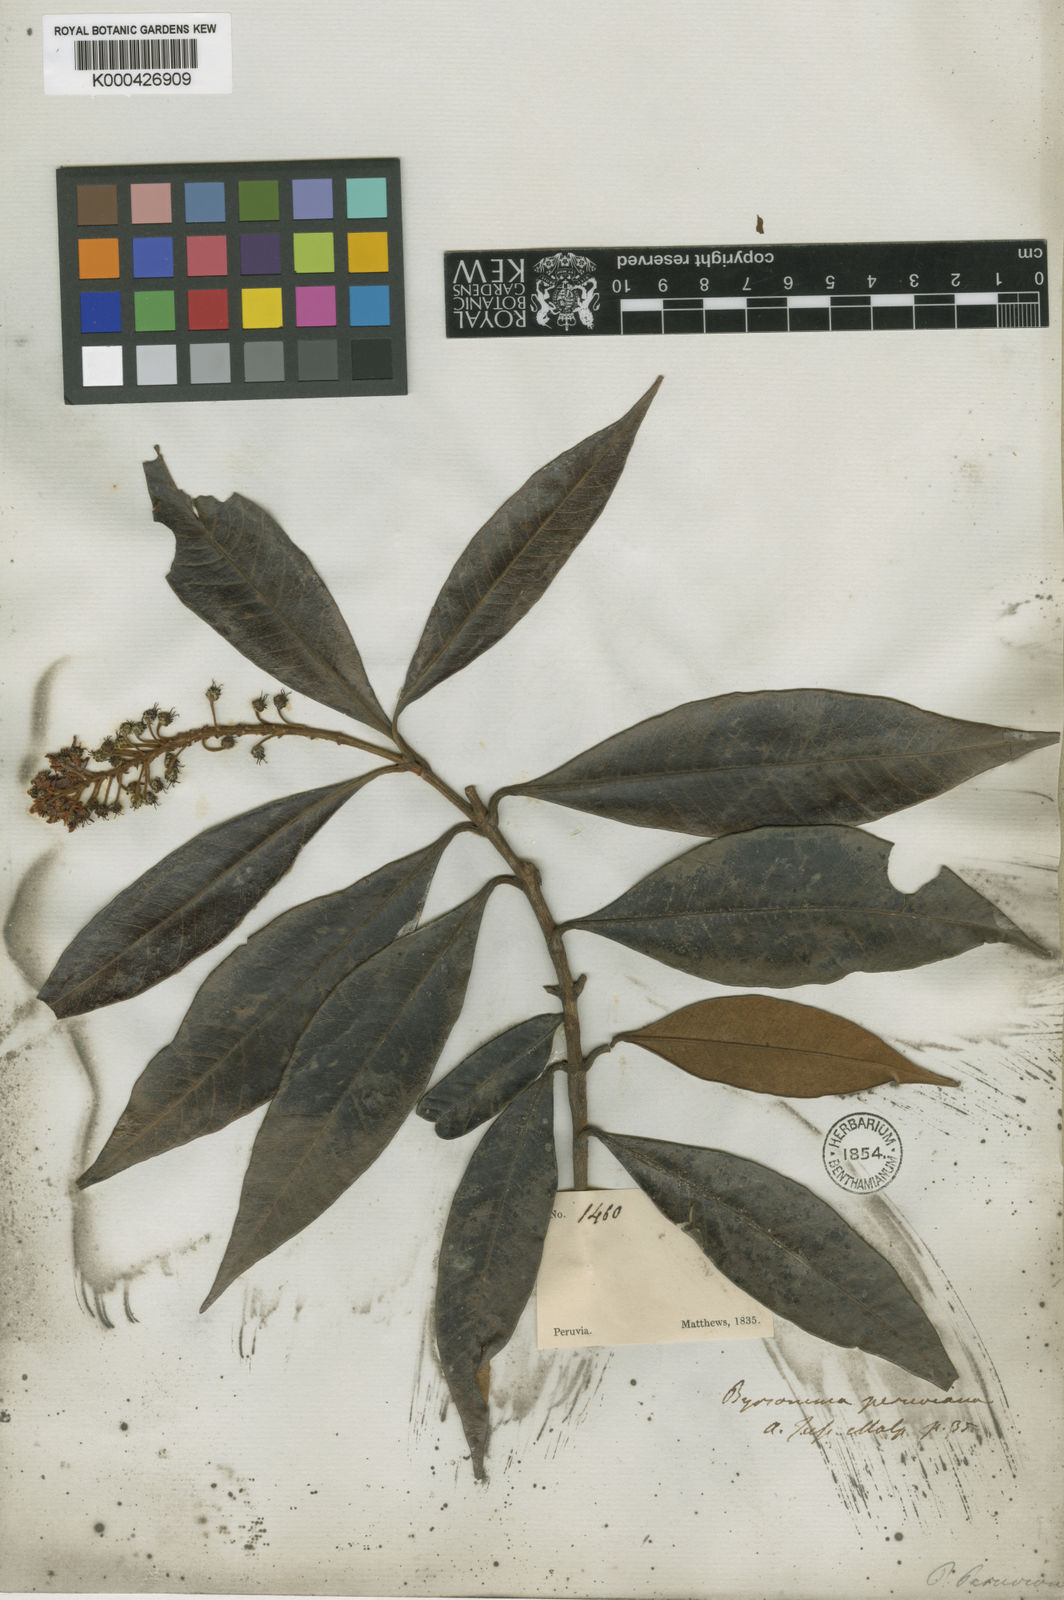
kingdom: Plantae
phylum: Tracheophyta
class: Magnoliopsida
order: Malpighiales
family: Malpighiaceae
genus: Byrsonima
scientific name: Byrsonima chrysophylla
